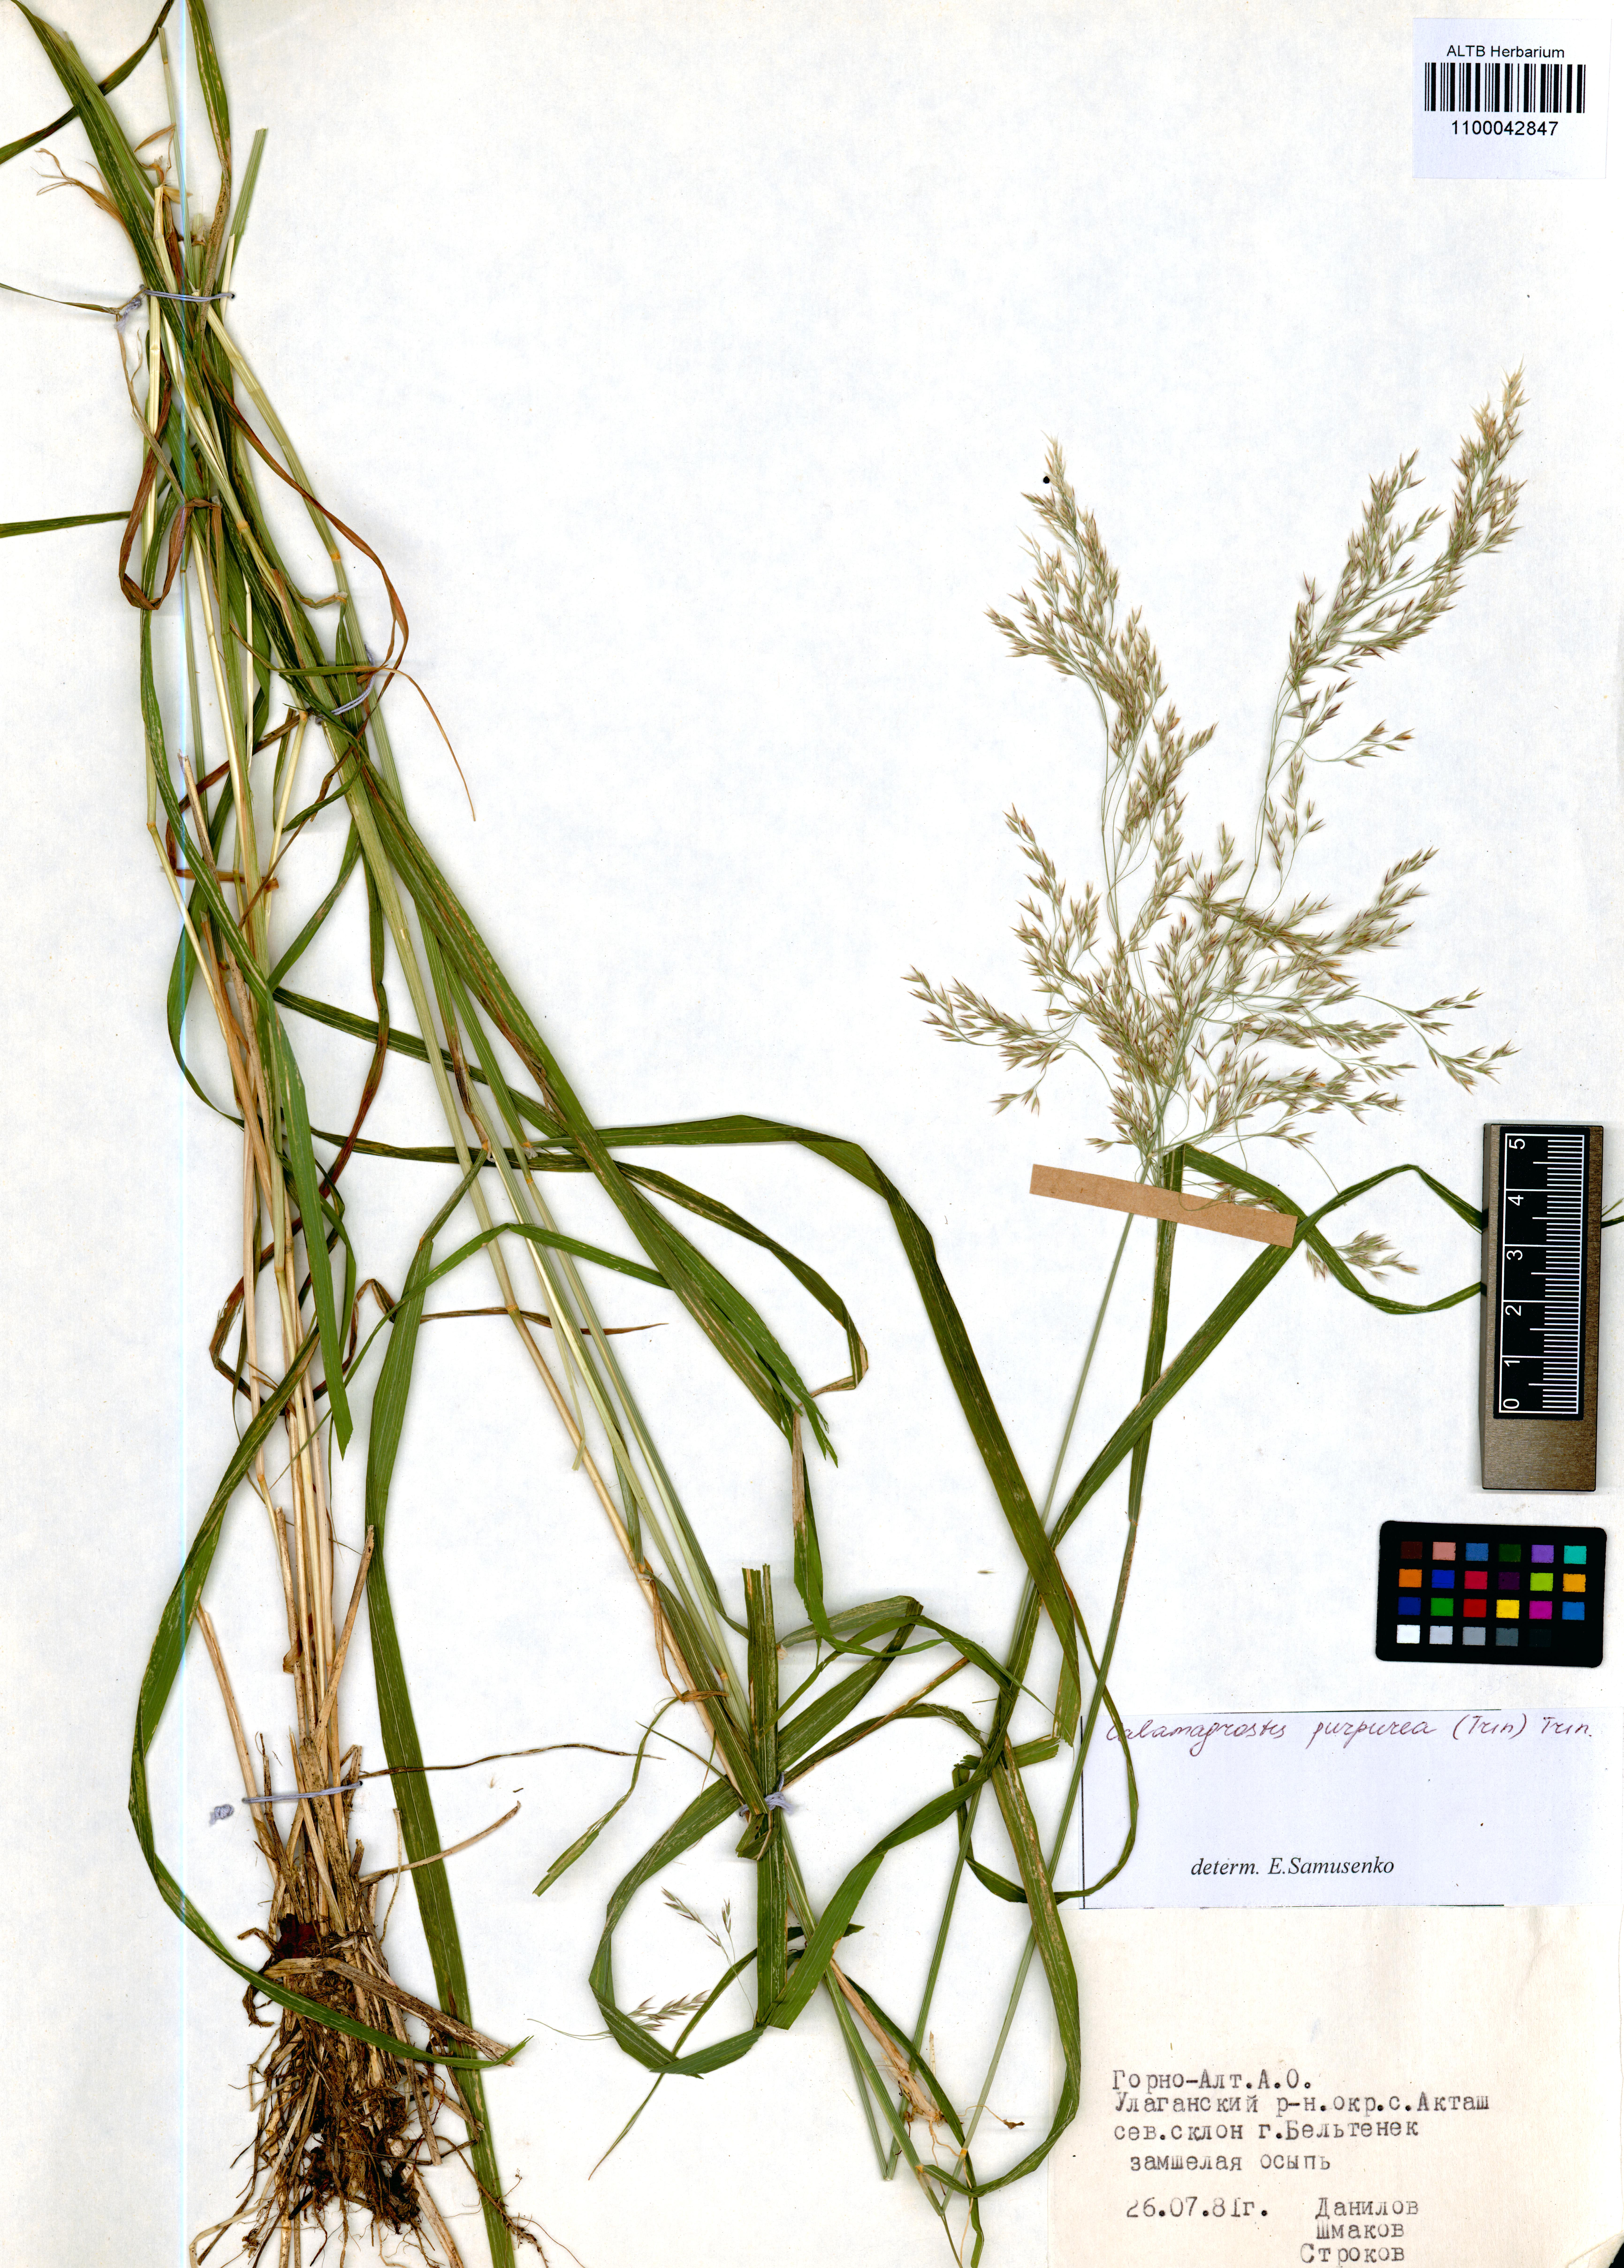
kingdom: Plantae
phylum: Tracheophyta
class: Liliopsida
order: Poales
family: Poaceae
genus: Calamagrostis
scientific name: Calamagrostis purpurea
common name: Scandinavian small-reed
